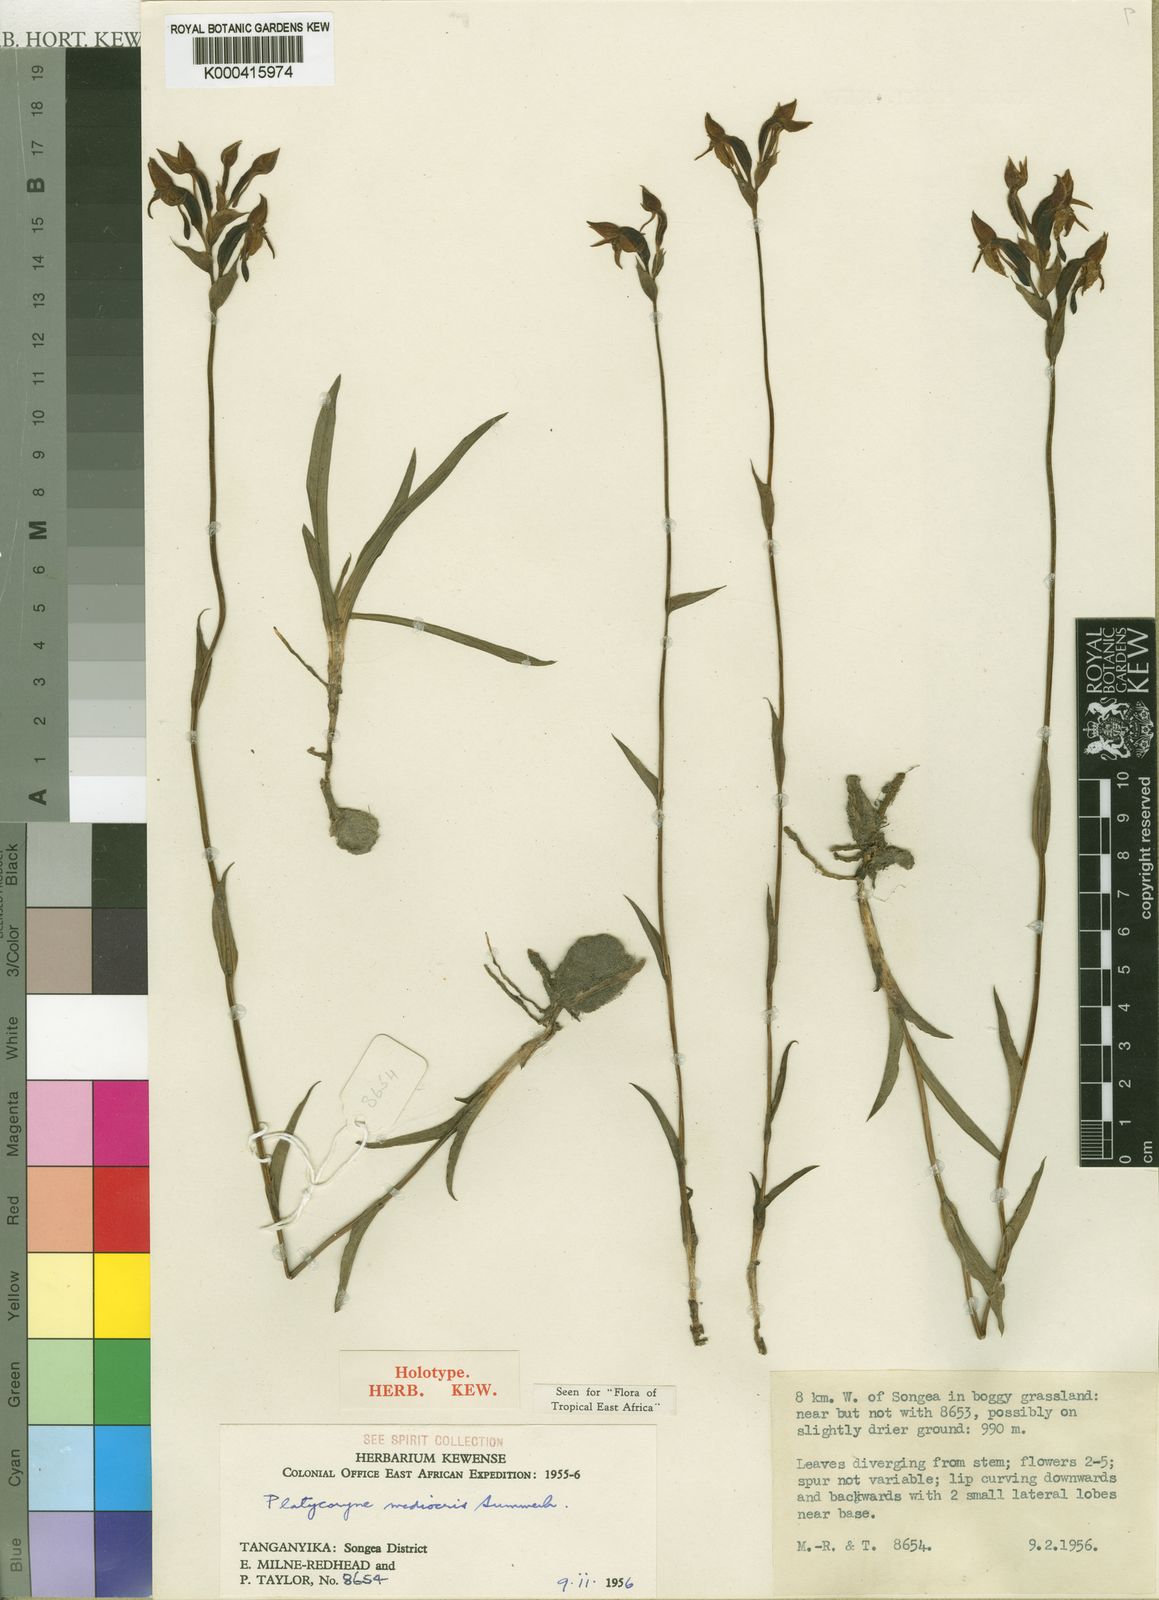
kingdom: Plantae
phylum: Tracheophyta
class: Liliopsida
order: Asparagales
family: Orchidaceae
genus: Platycoryne
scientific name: Platycoryne mediocris
